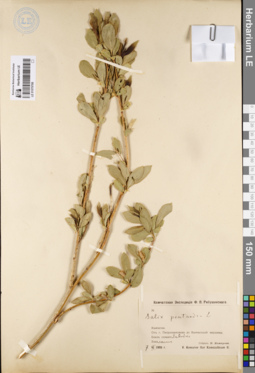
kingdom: Plantae
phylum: Tracheophyta
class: Magnoliopsida
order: Malpighiales
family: Salicaceae
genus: Salix
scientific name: Salix pseudopentandra
